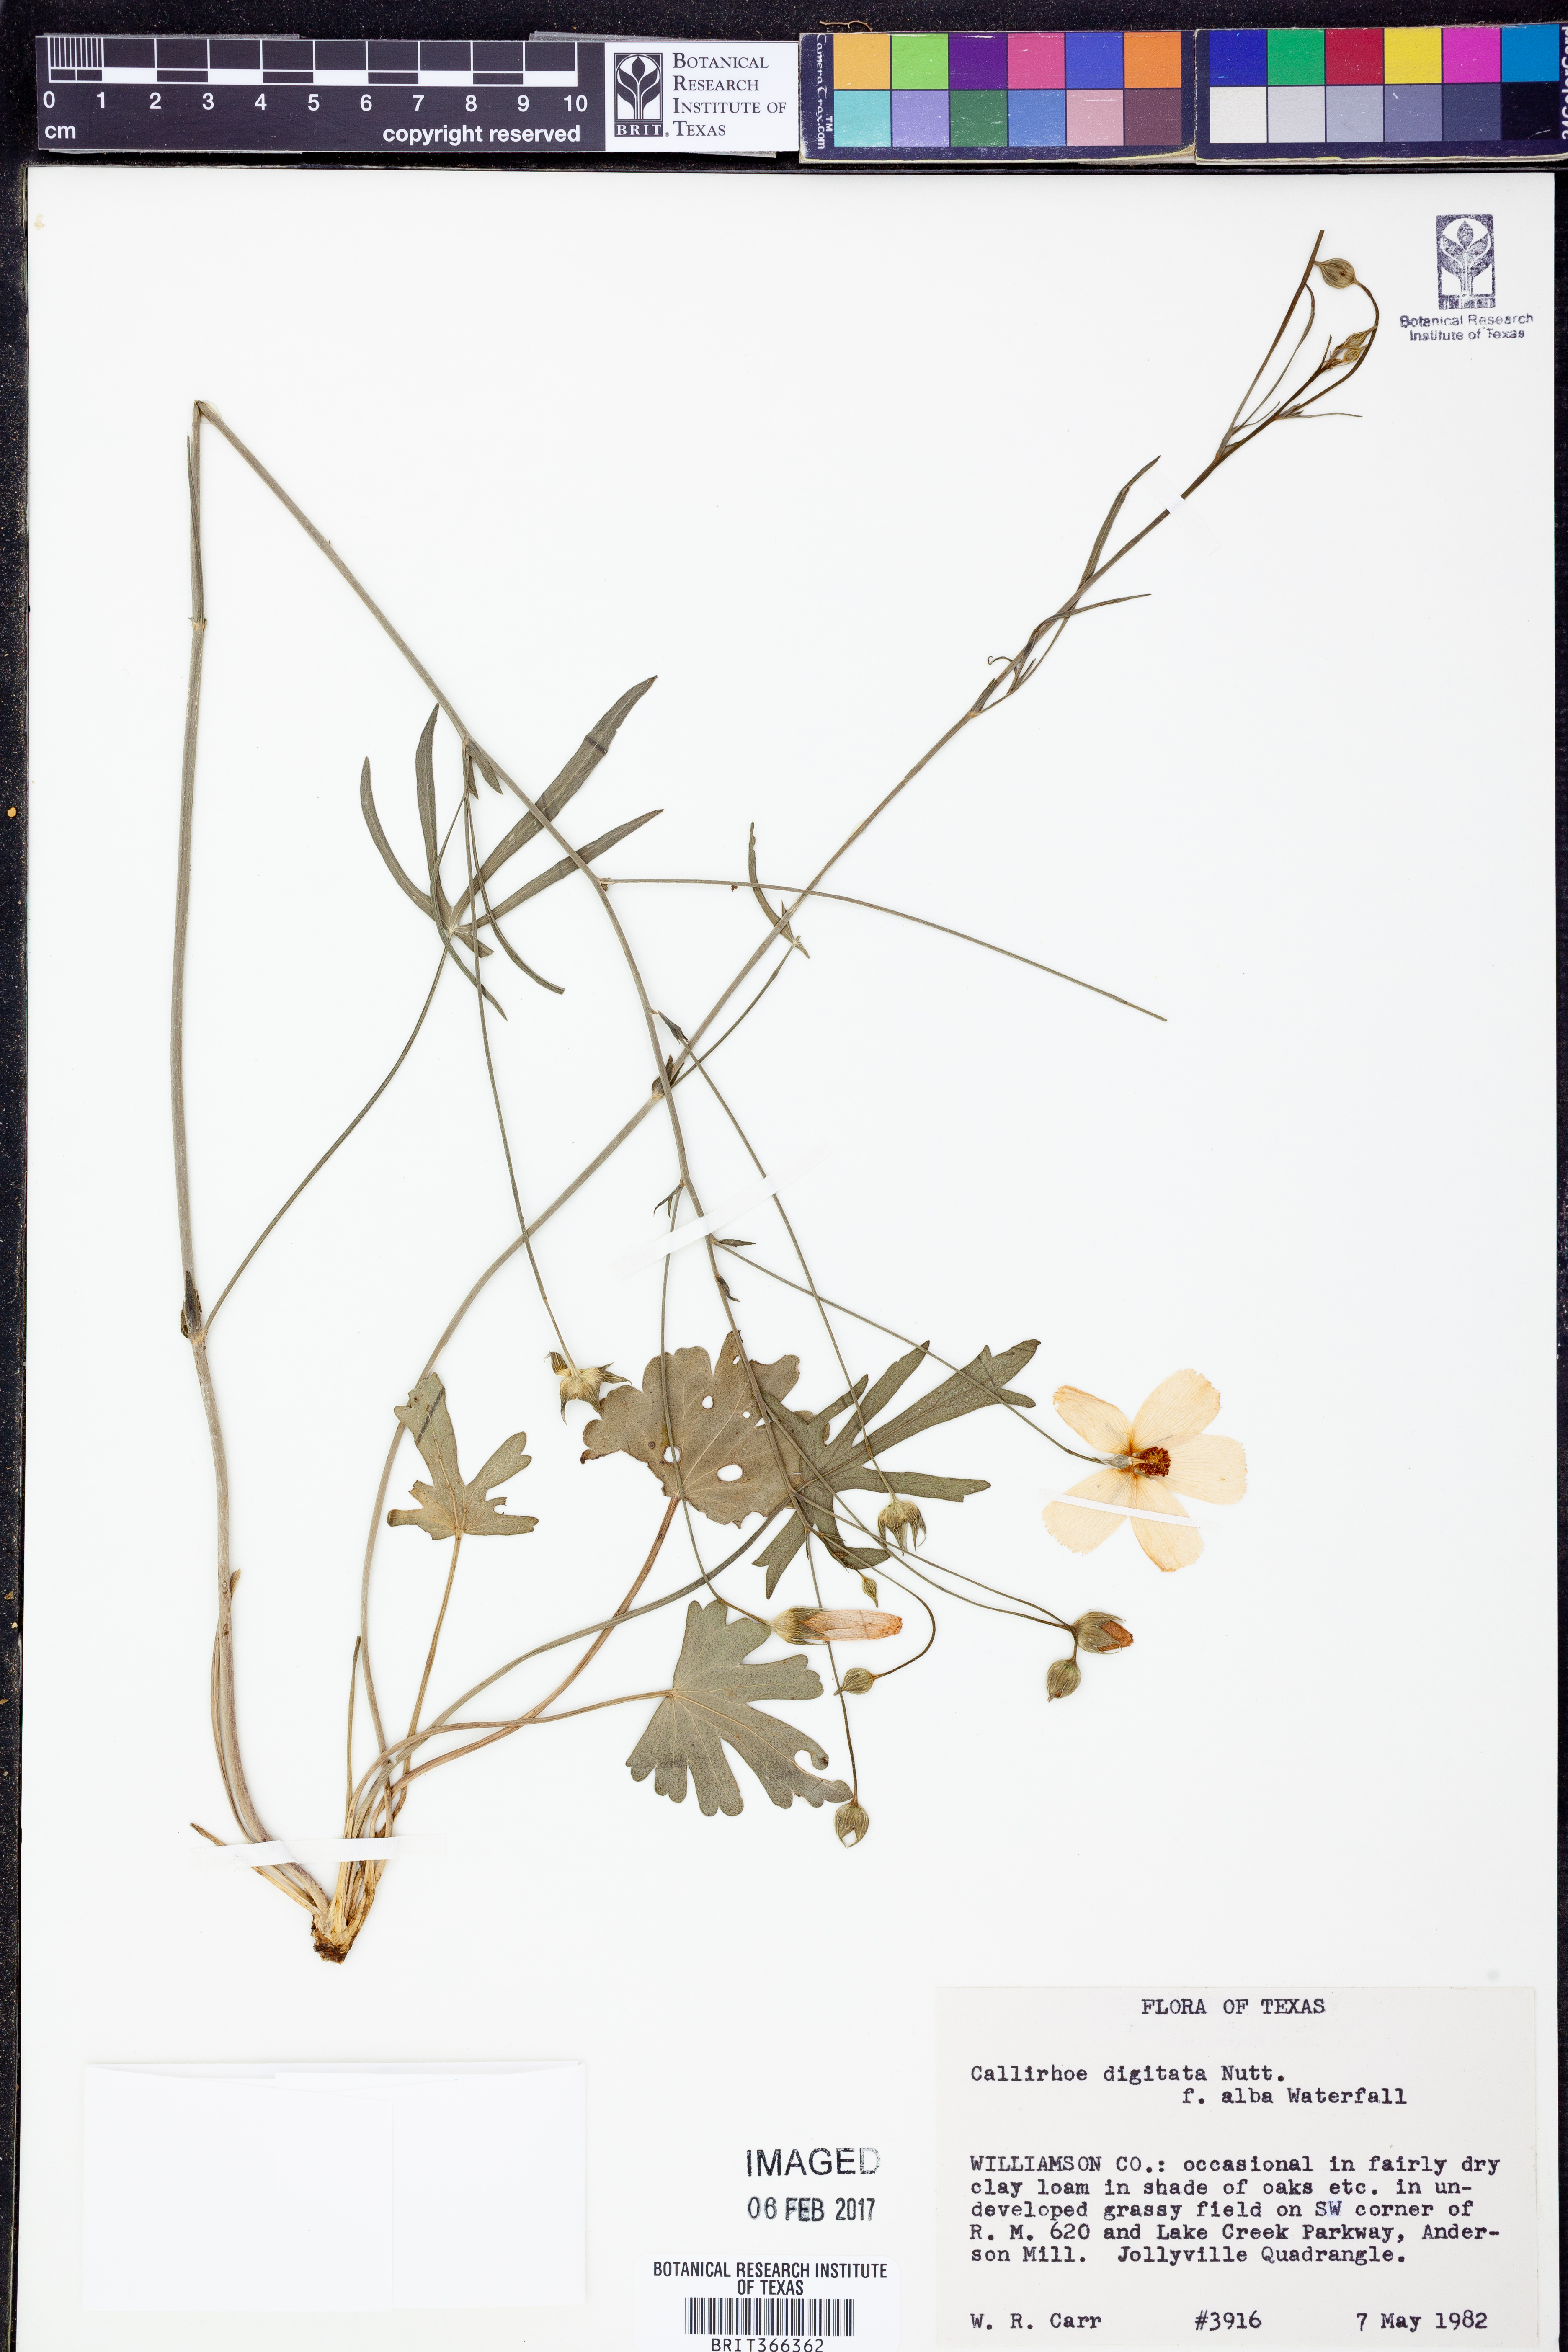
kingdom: Plantae
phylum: Tracheophyta
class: Magnoliopsida
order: Malvales
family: Malvaceae
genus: Callirhoe
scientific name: Callirhoe pedata
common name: Finger poppy-mallow
